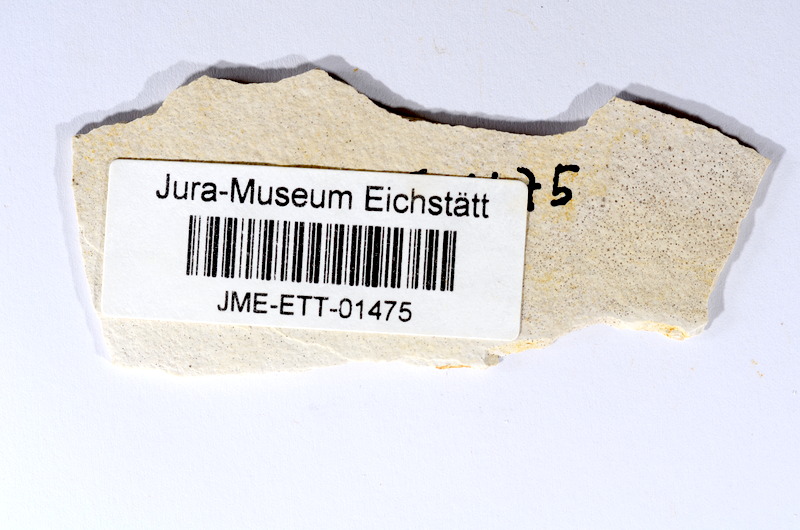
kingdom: Animalia
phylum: Chordata
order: Salmoniformes
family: Orthogonikleithridae
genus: Orthogonikleithrus
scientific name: Orthogonikleithrus hoelli
